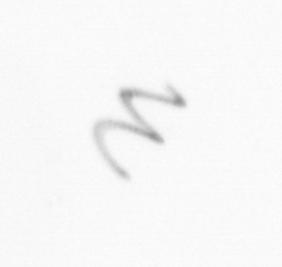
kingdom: Chromista
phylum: Ochrophyta
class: Bacillariophyceae
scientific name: Bacillariophyceae
